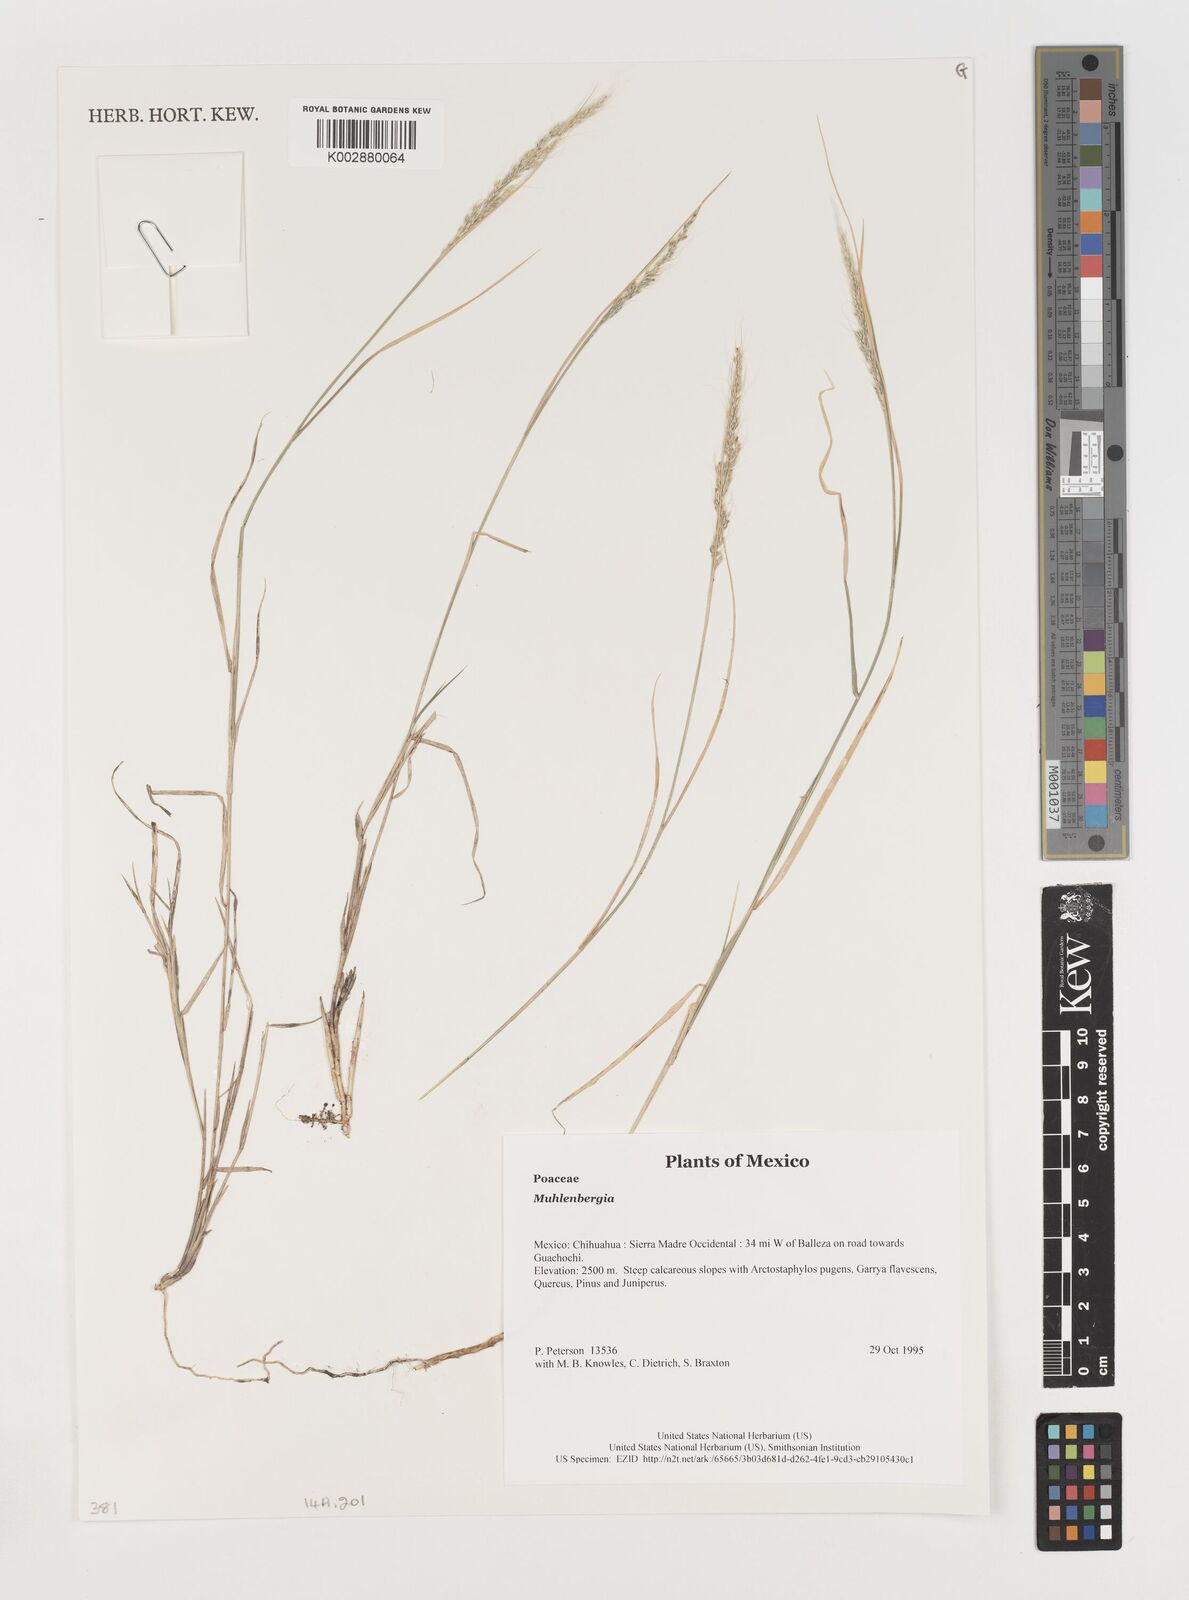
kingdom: Plantae
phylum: Tracheophyta
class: Liliopsida
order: Poales
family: Poaceae
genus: Muhlenbergia
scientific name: Muhlenbergia
